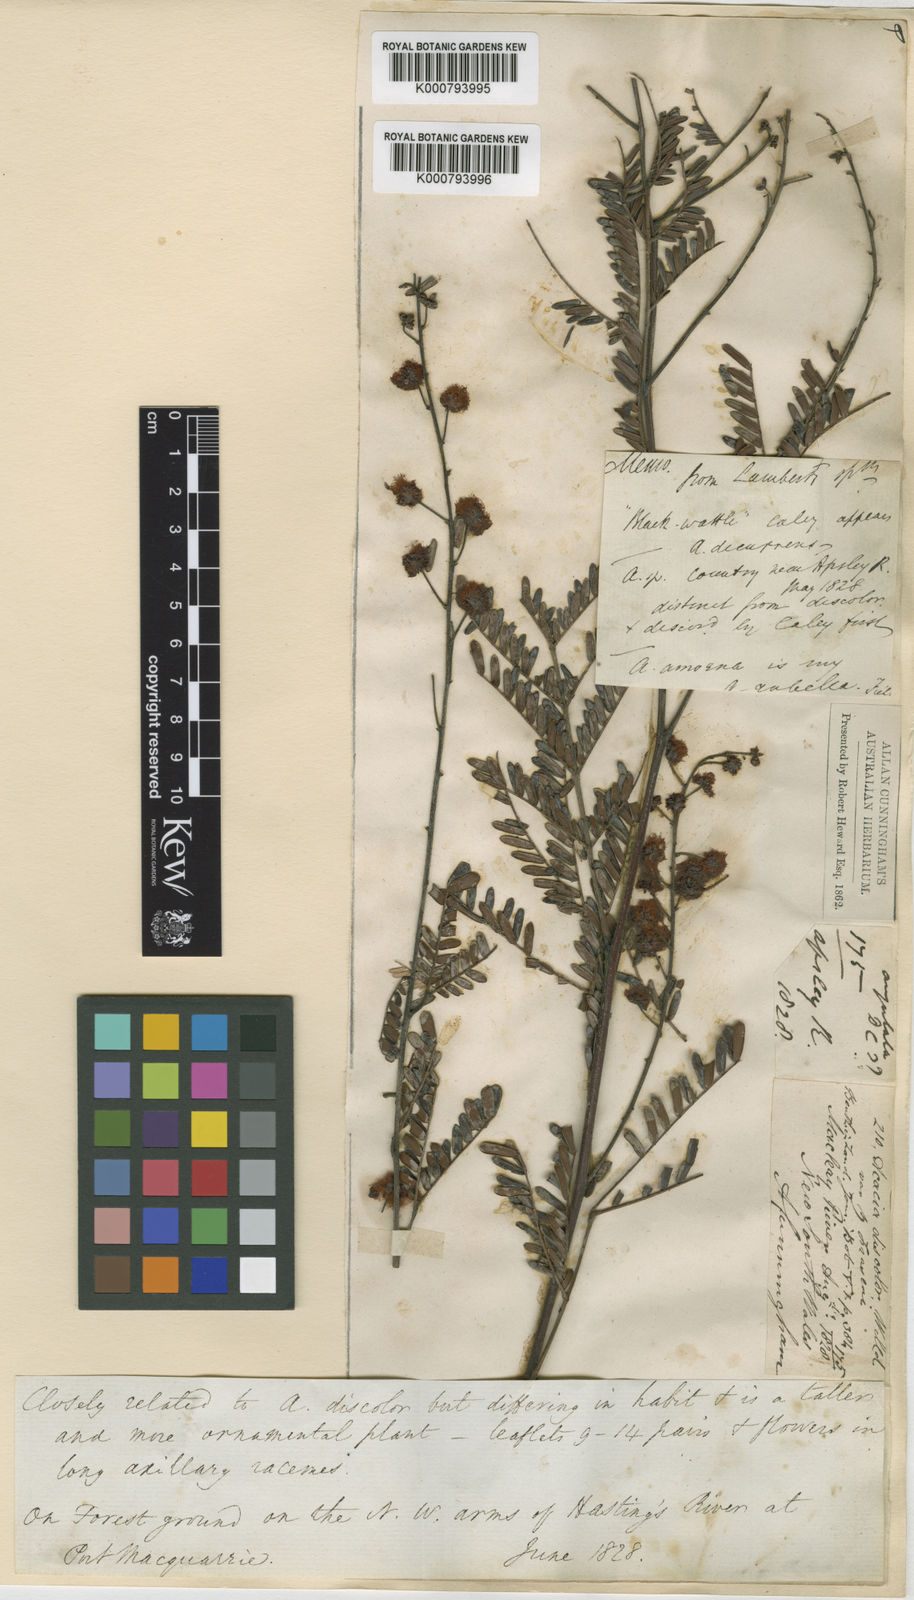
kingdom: Plantae
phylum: Tracheophyta
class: Magnoliopsida
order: Fabales
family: Fabaceae
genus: Acacia
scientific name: Acacia terminalis
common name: Cedar wattle
